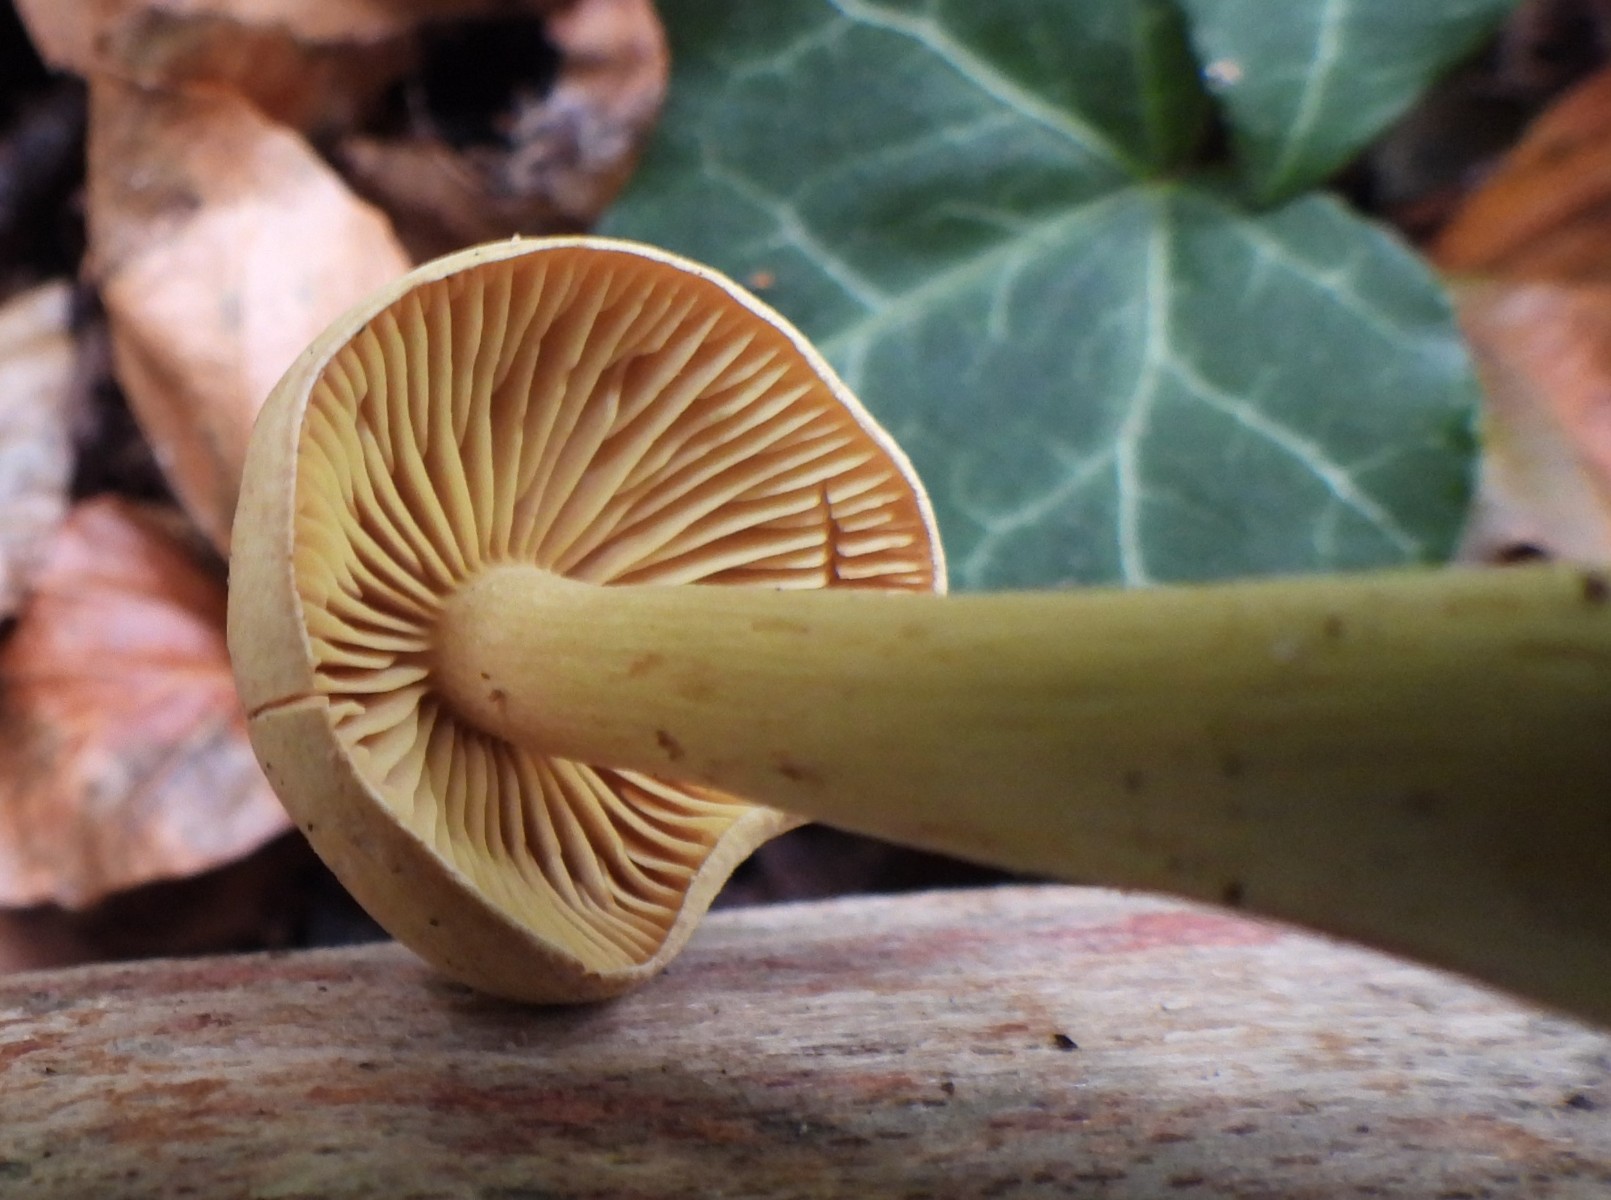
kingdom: Fungi
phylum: Basidiomycota
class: Agaricomycetes
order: Agaricales
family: Tricholomataceae
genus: Tricholoma
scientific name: Tricholoma sulphureum
